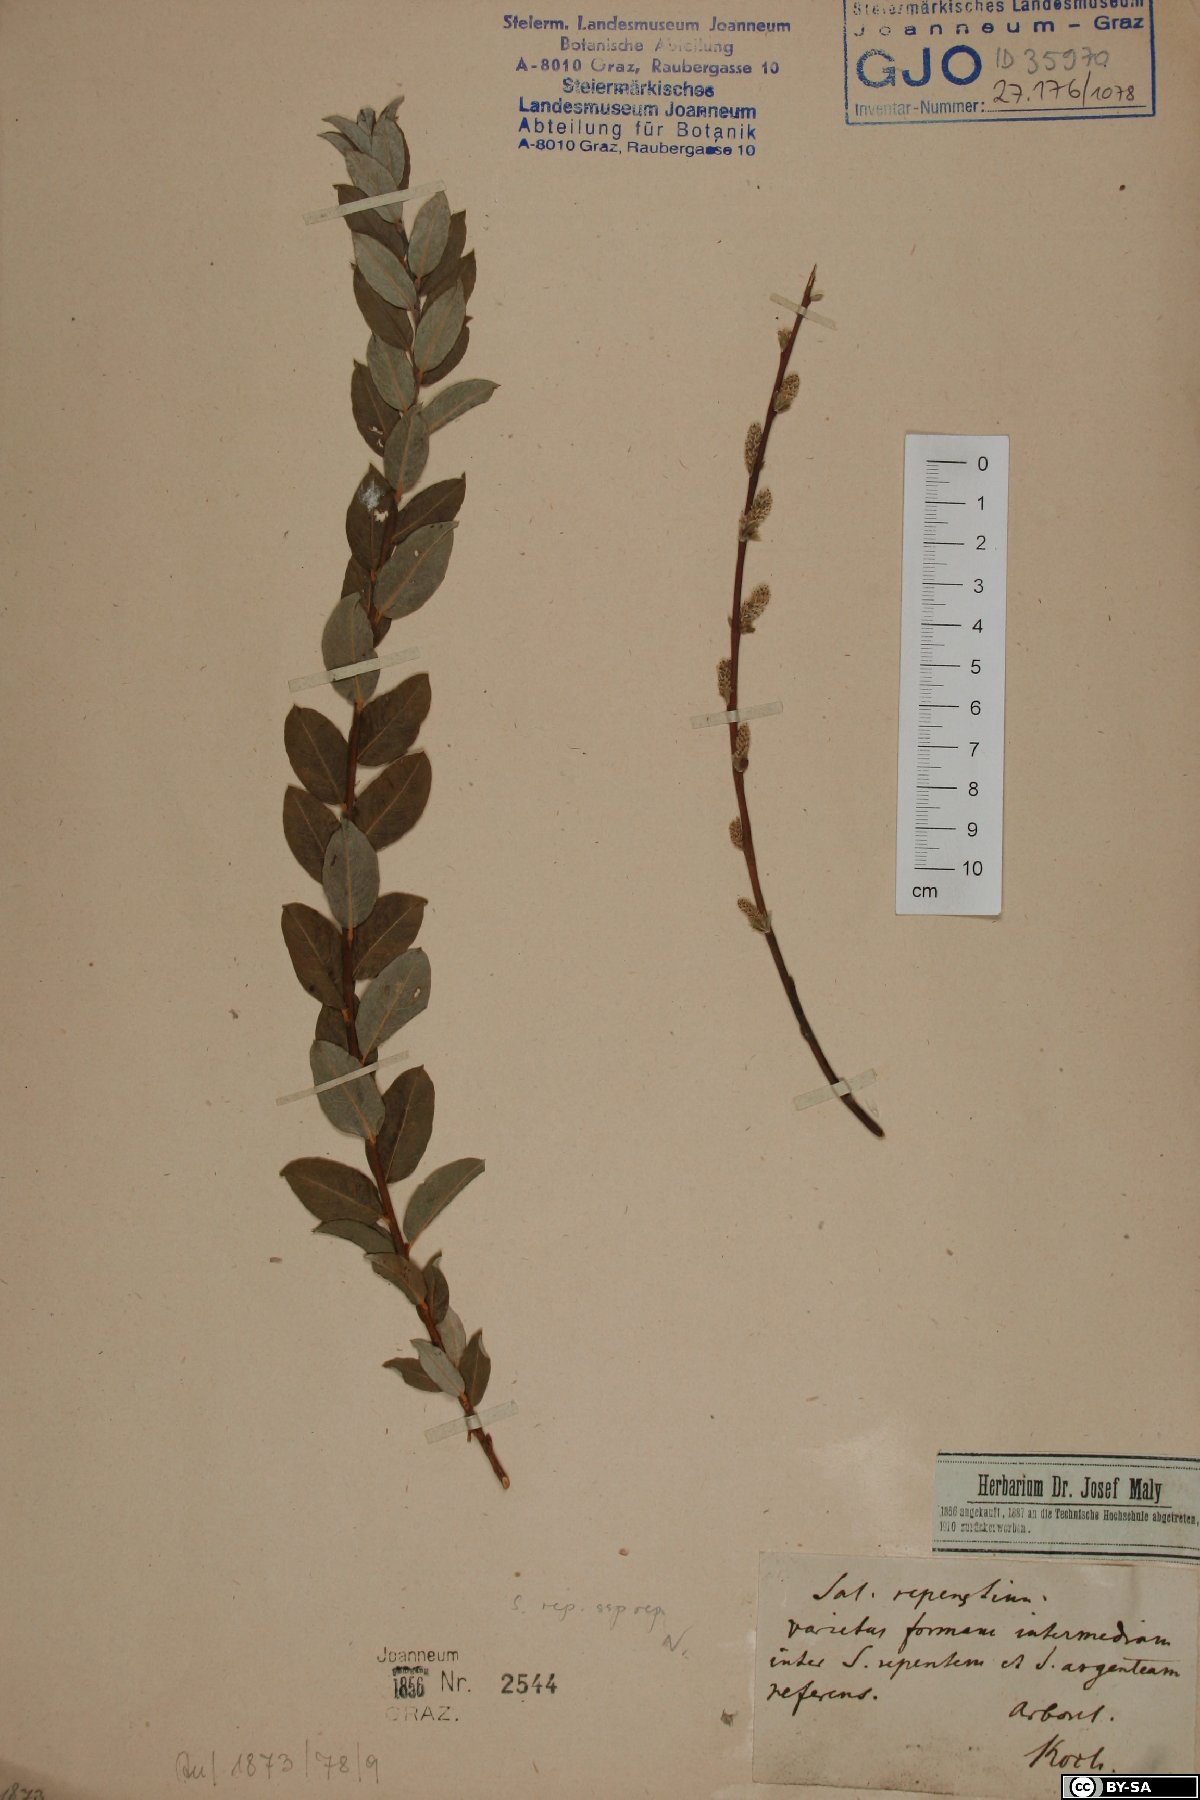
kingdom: Plantae
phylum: Tracheophyta
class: Magnoliopsida
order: Malpighiales
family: Salicaceae
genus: Salix
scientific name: Salix repens
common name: Creeping willow
